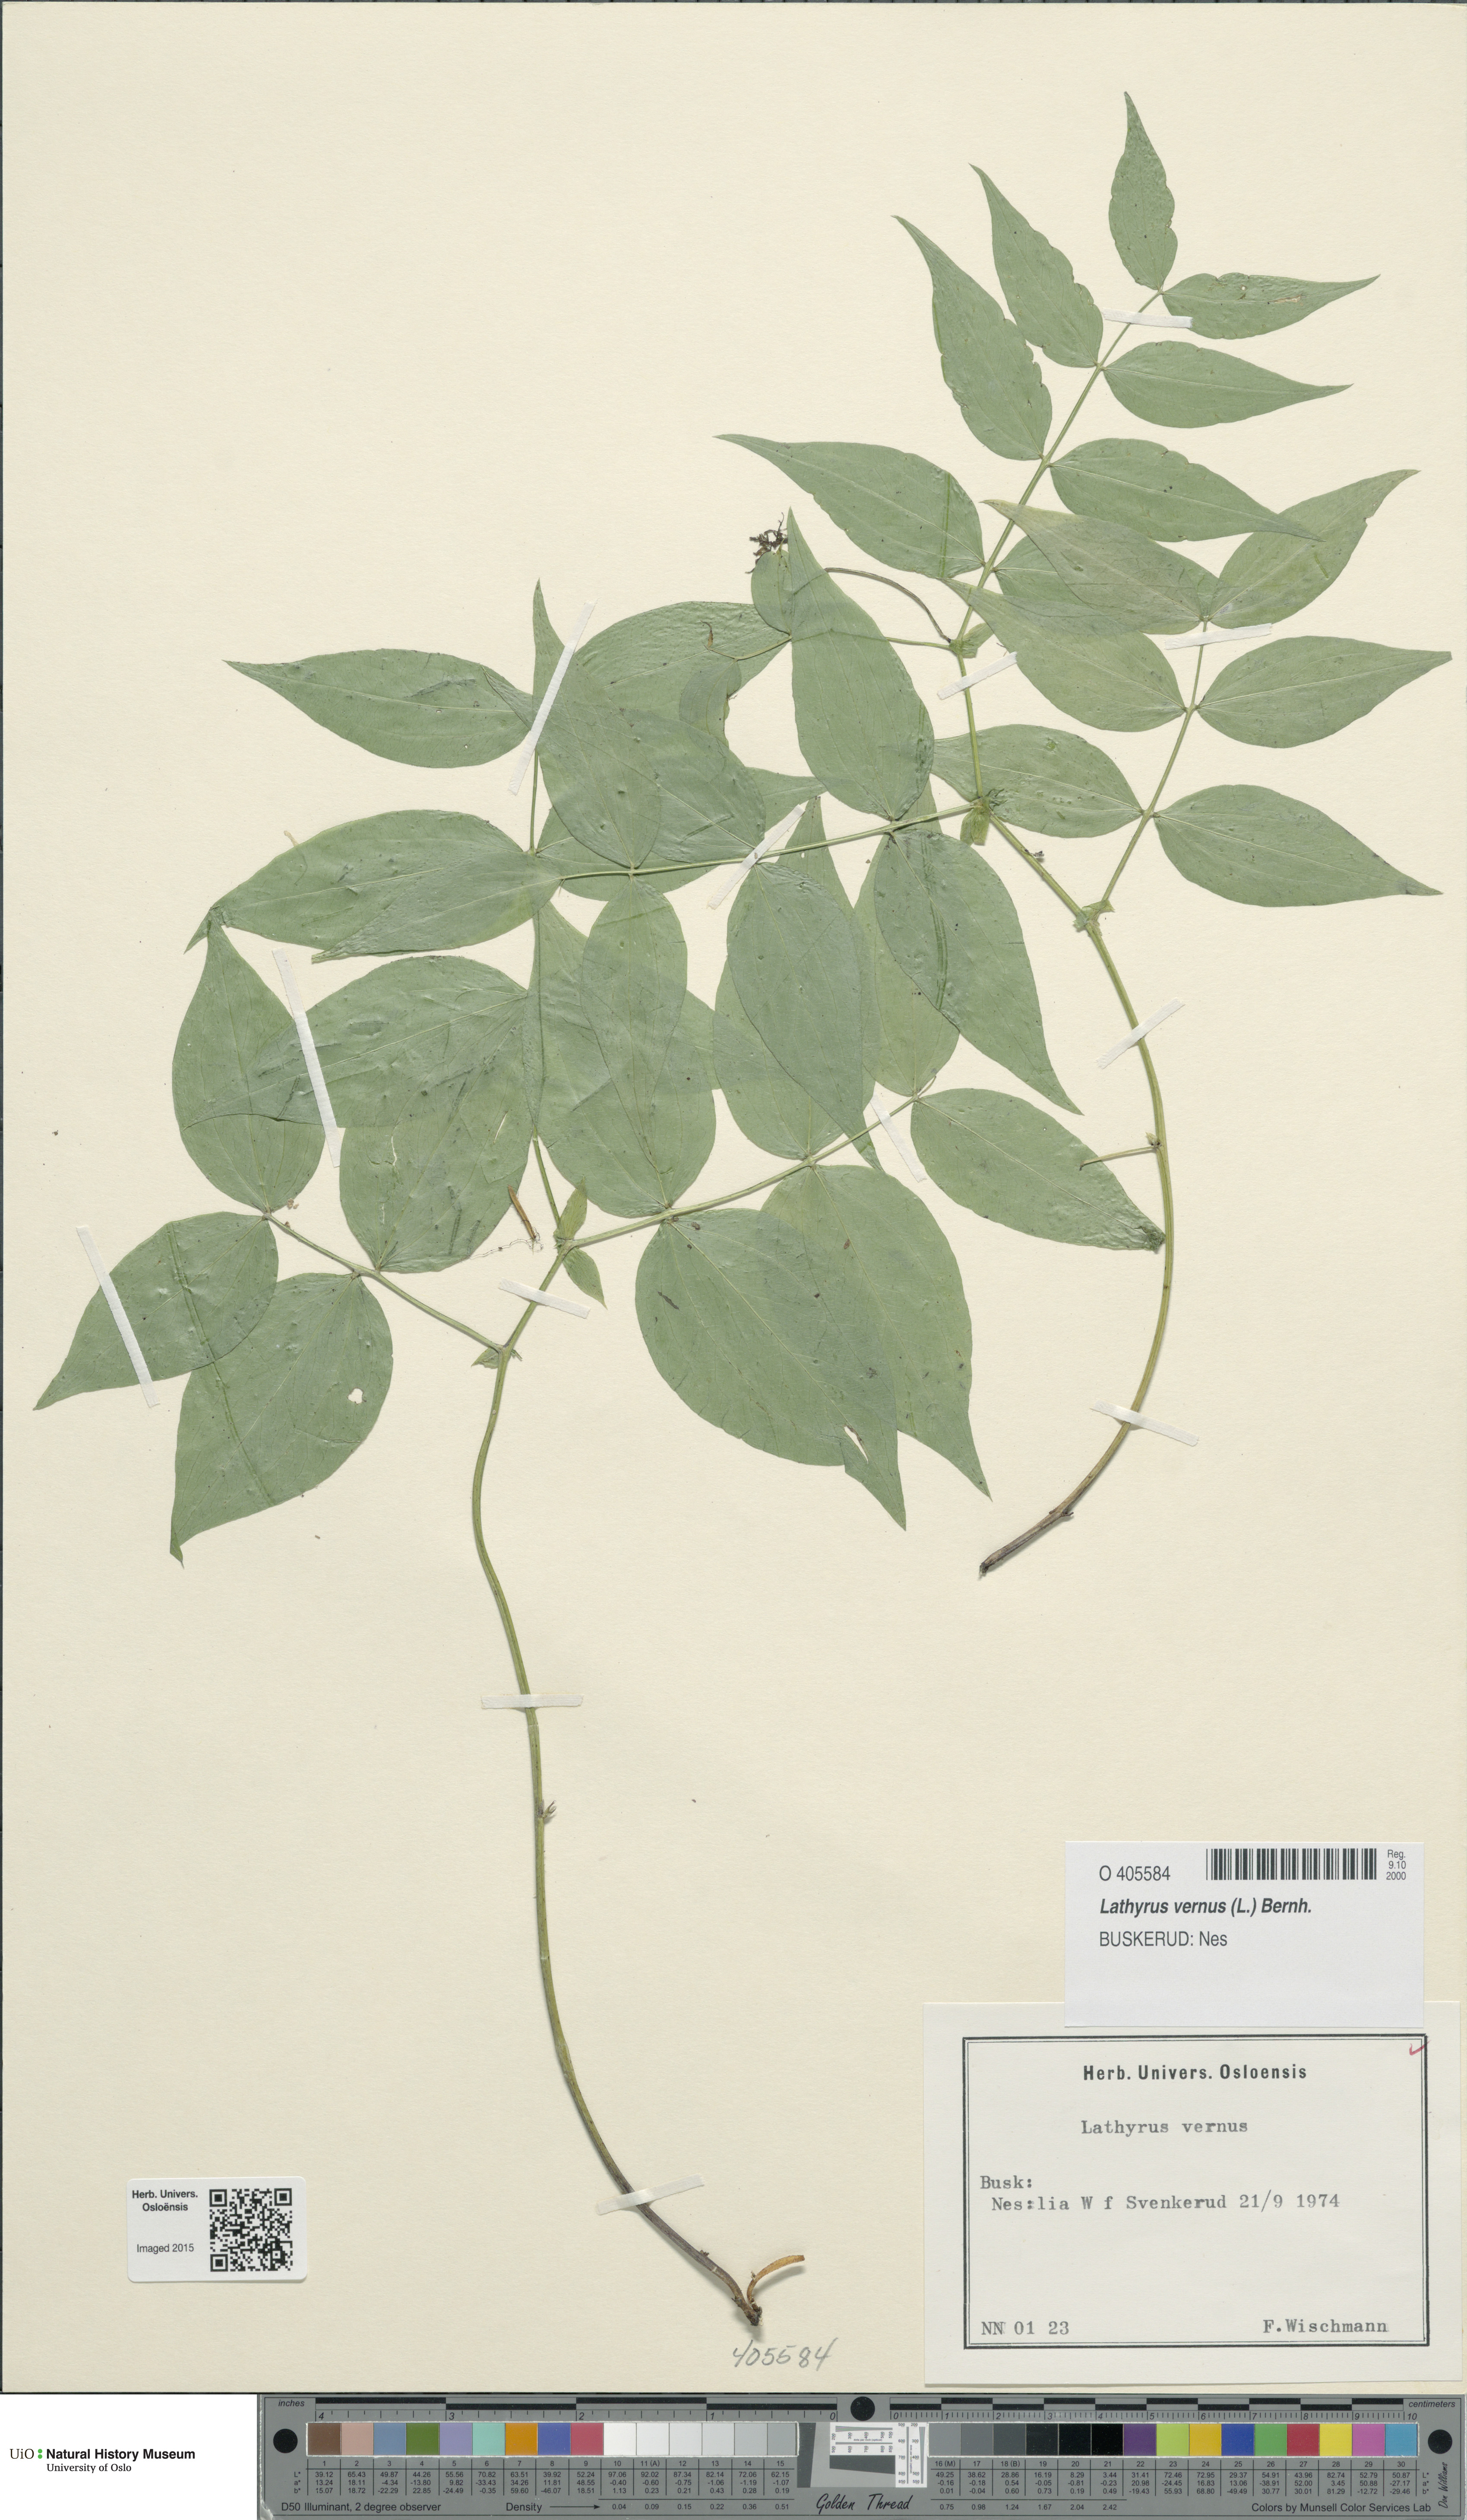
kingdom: Plantae
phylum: Tracheophyta
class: Magnoliopsida
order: Fabales
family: Fabaceae
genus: Lathyrus
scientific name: Lathyrus vernus
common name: Spring pea
